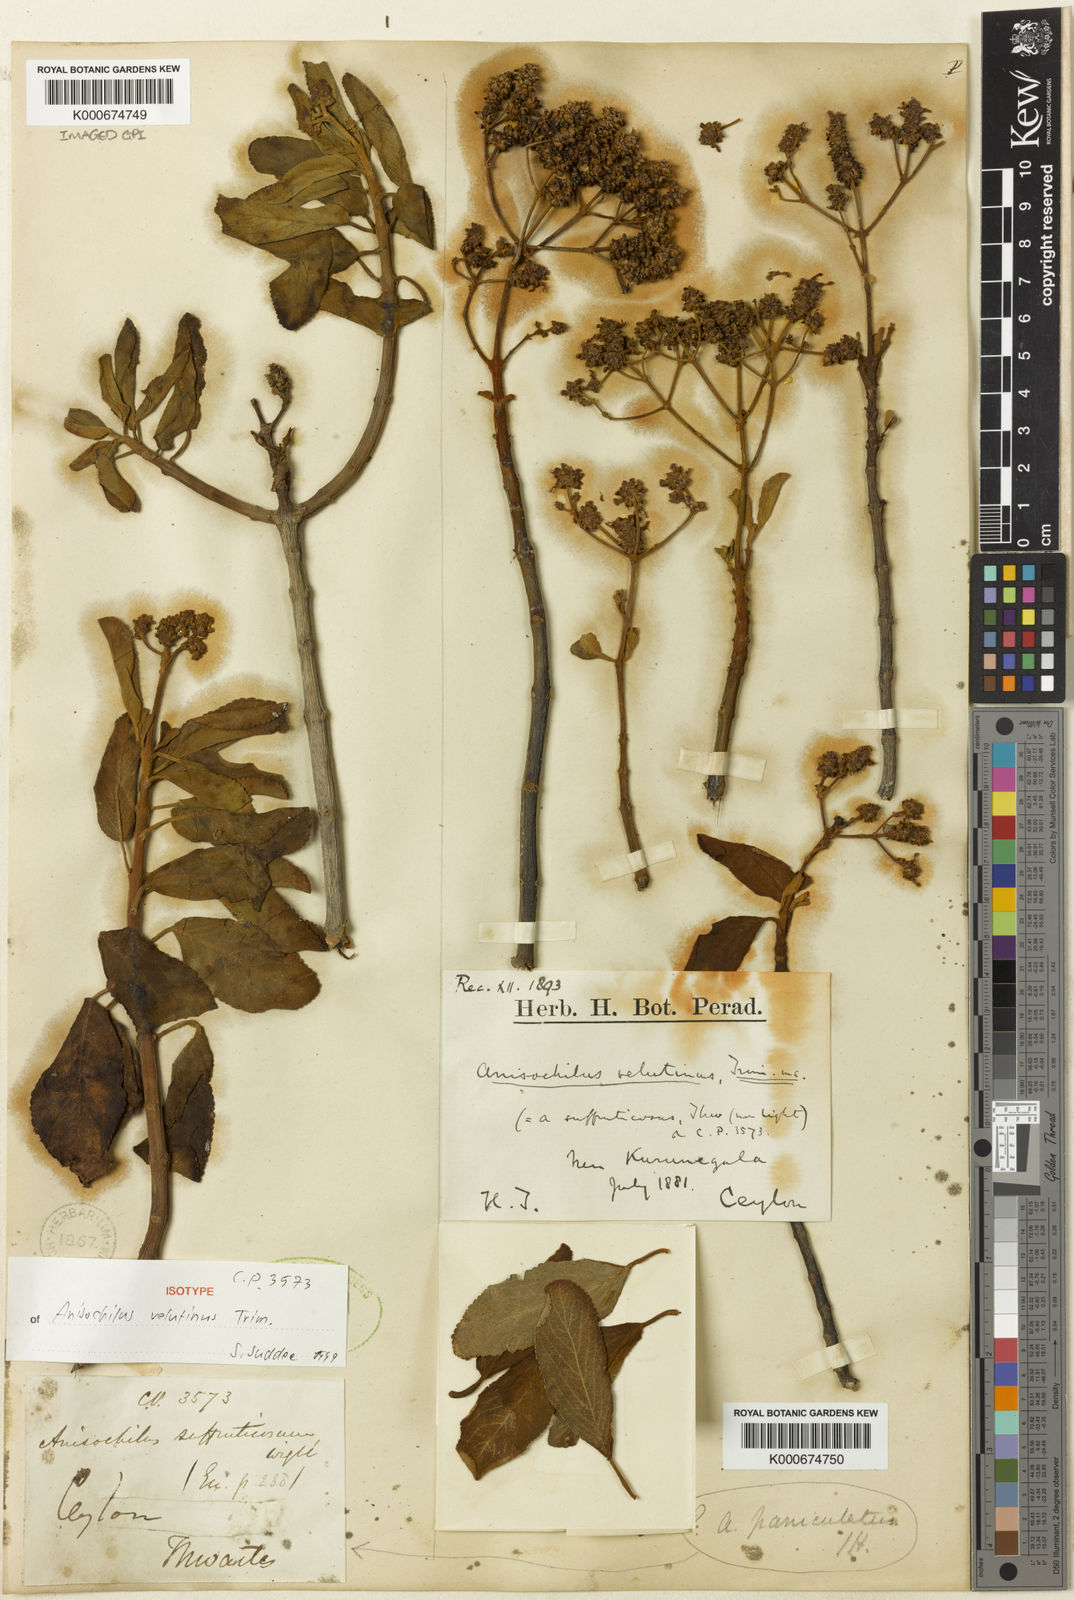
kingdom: Plantae
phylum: Tracheophyta
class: Magnoliopsida
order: Lamiales
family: Lamiaceae
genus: Coleus
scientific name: Coleus velutinus
